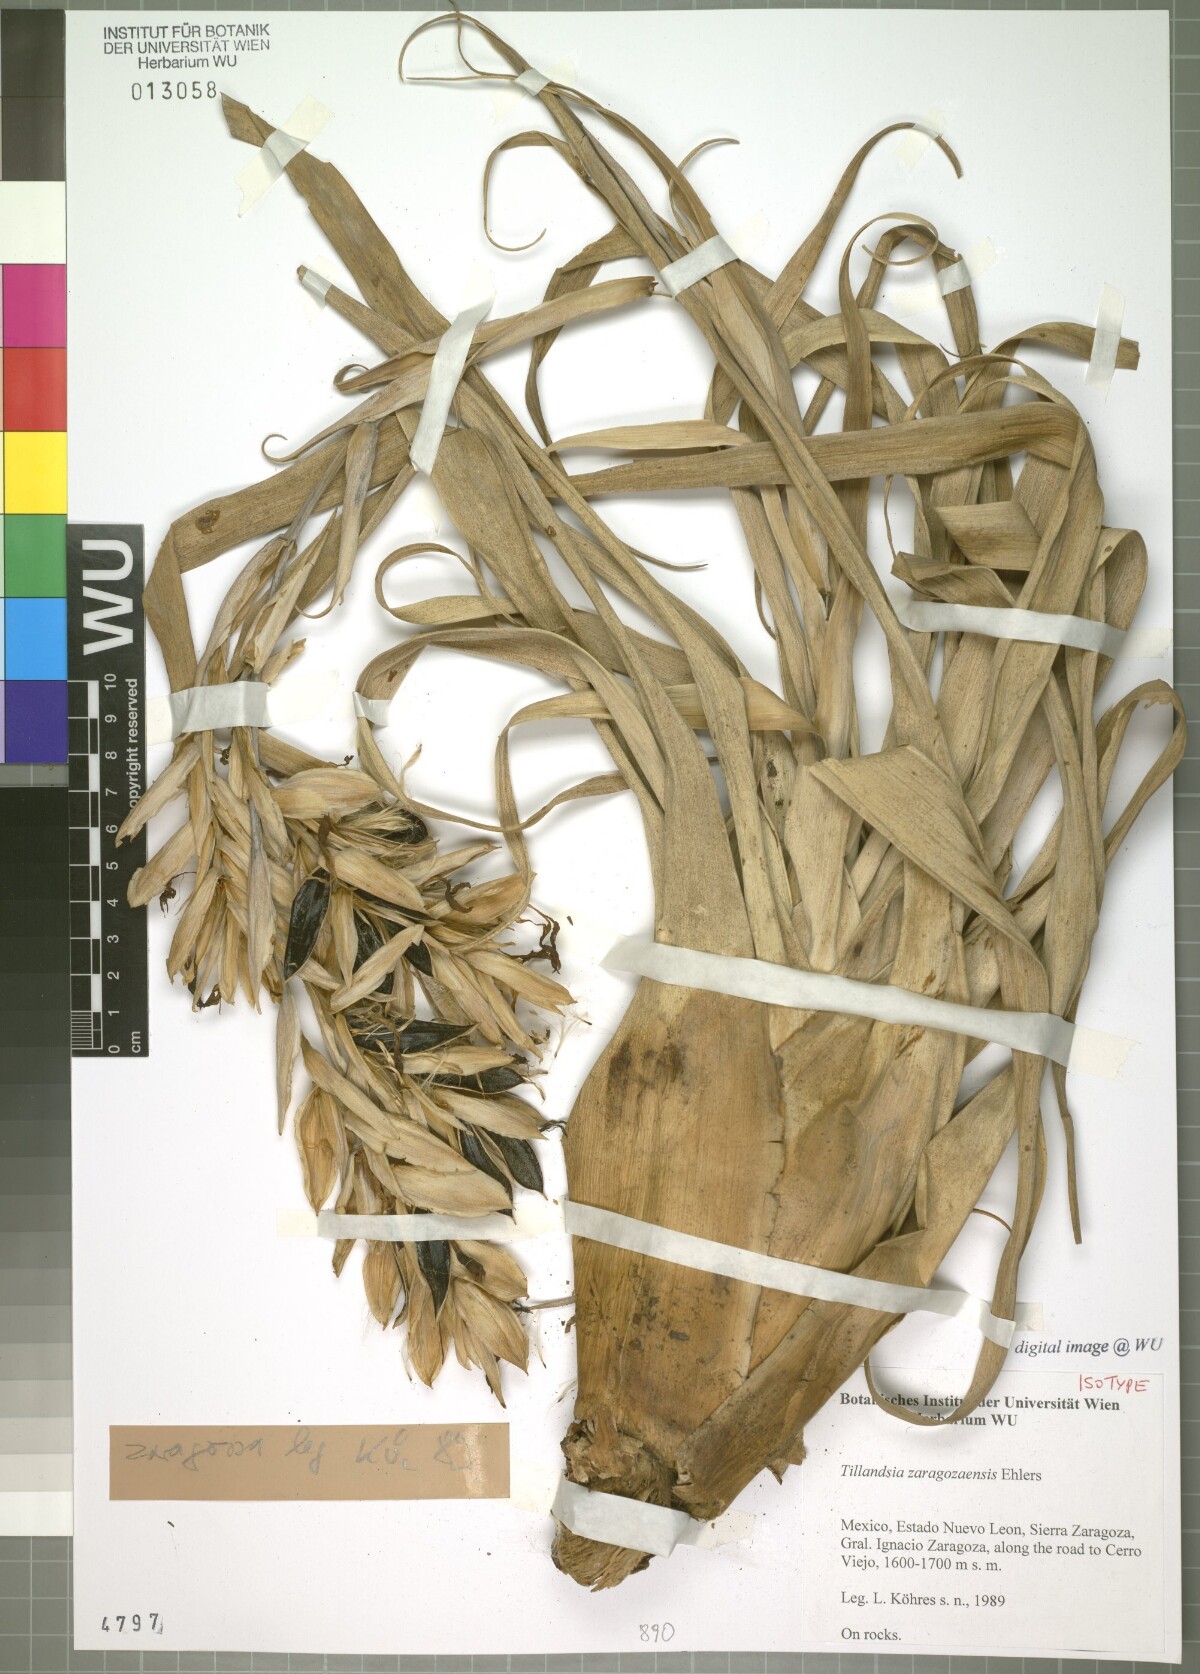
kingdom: Plantae
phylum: Tracheophyta
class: Liliopsida
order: Poales
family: Bromeliaceae
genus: Tillandsia
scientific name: Tillandsia zaragozaensis
